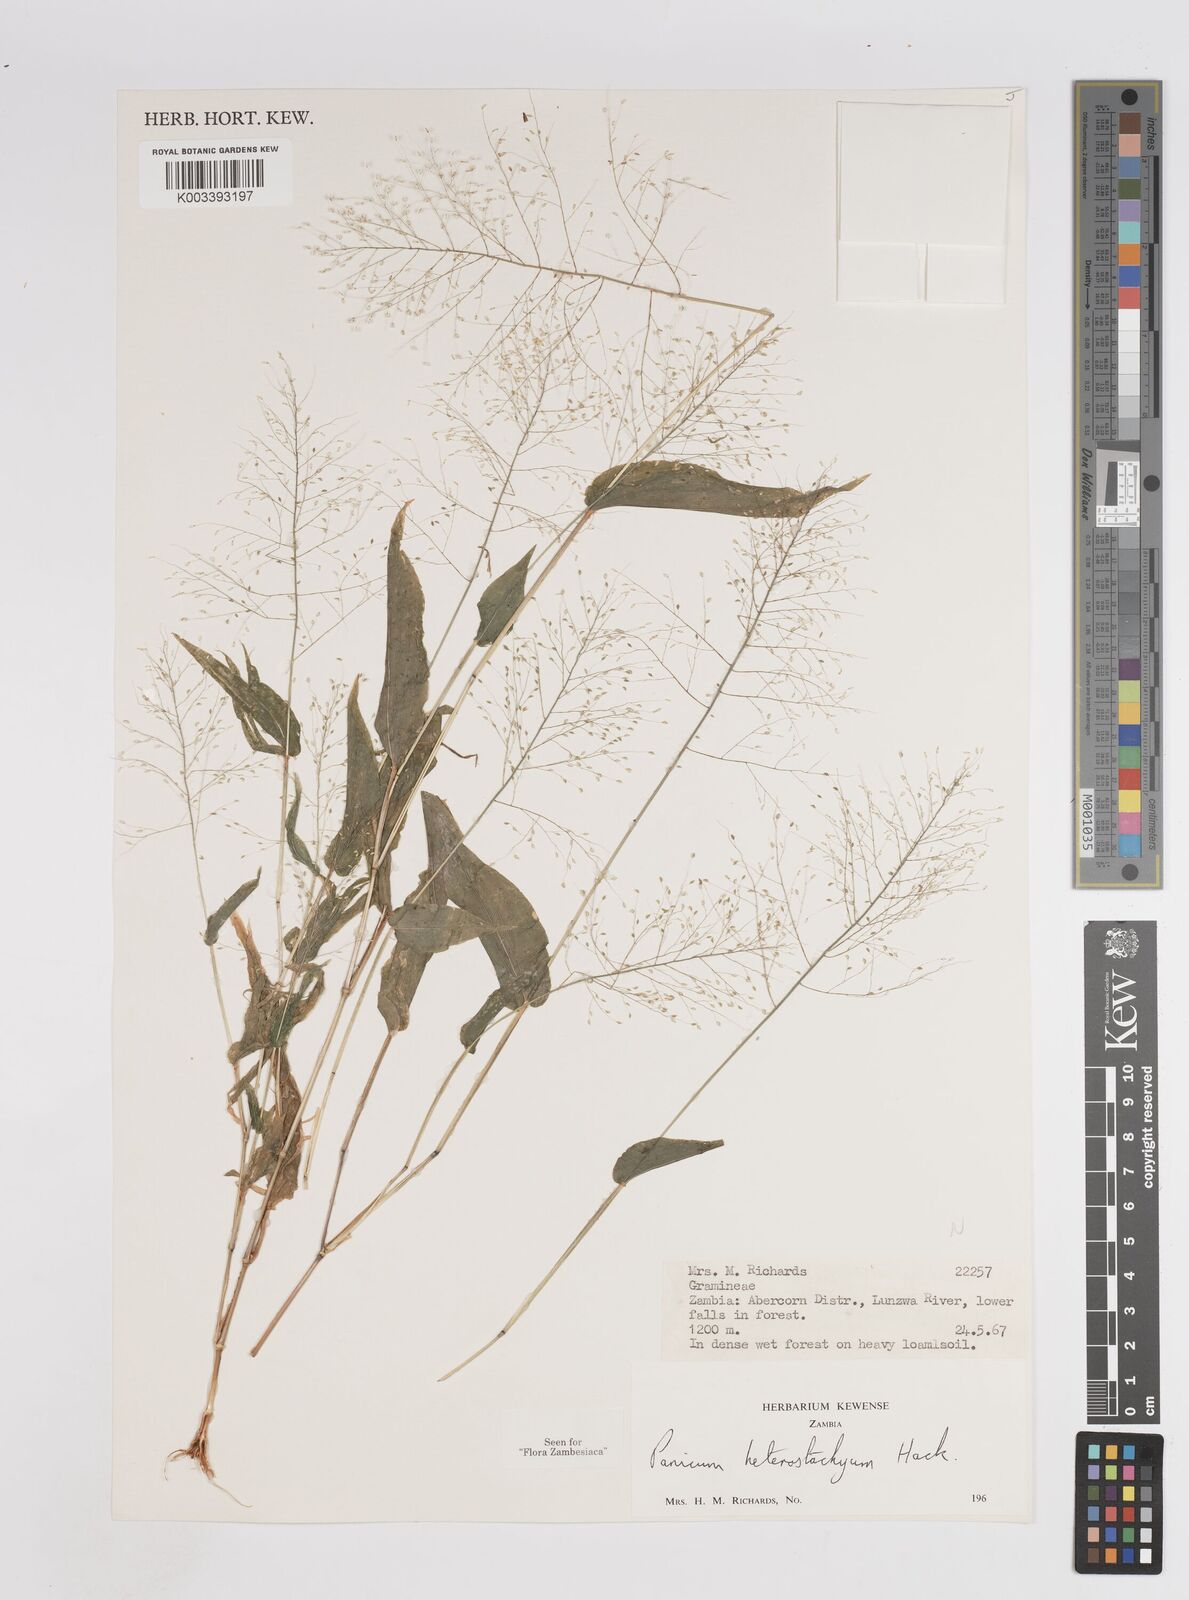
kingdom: Plantae
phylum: Tracheophyta
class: Liliopsida
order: Poales
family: Poaceae
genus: Panicum
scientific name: Panicum hirtum
